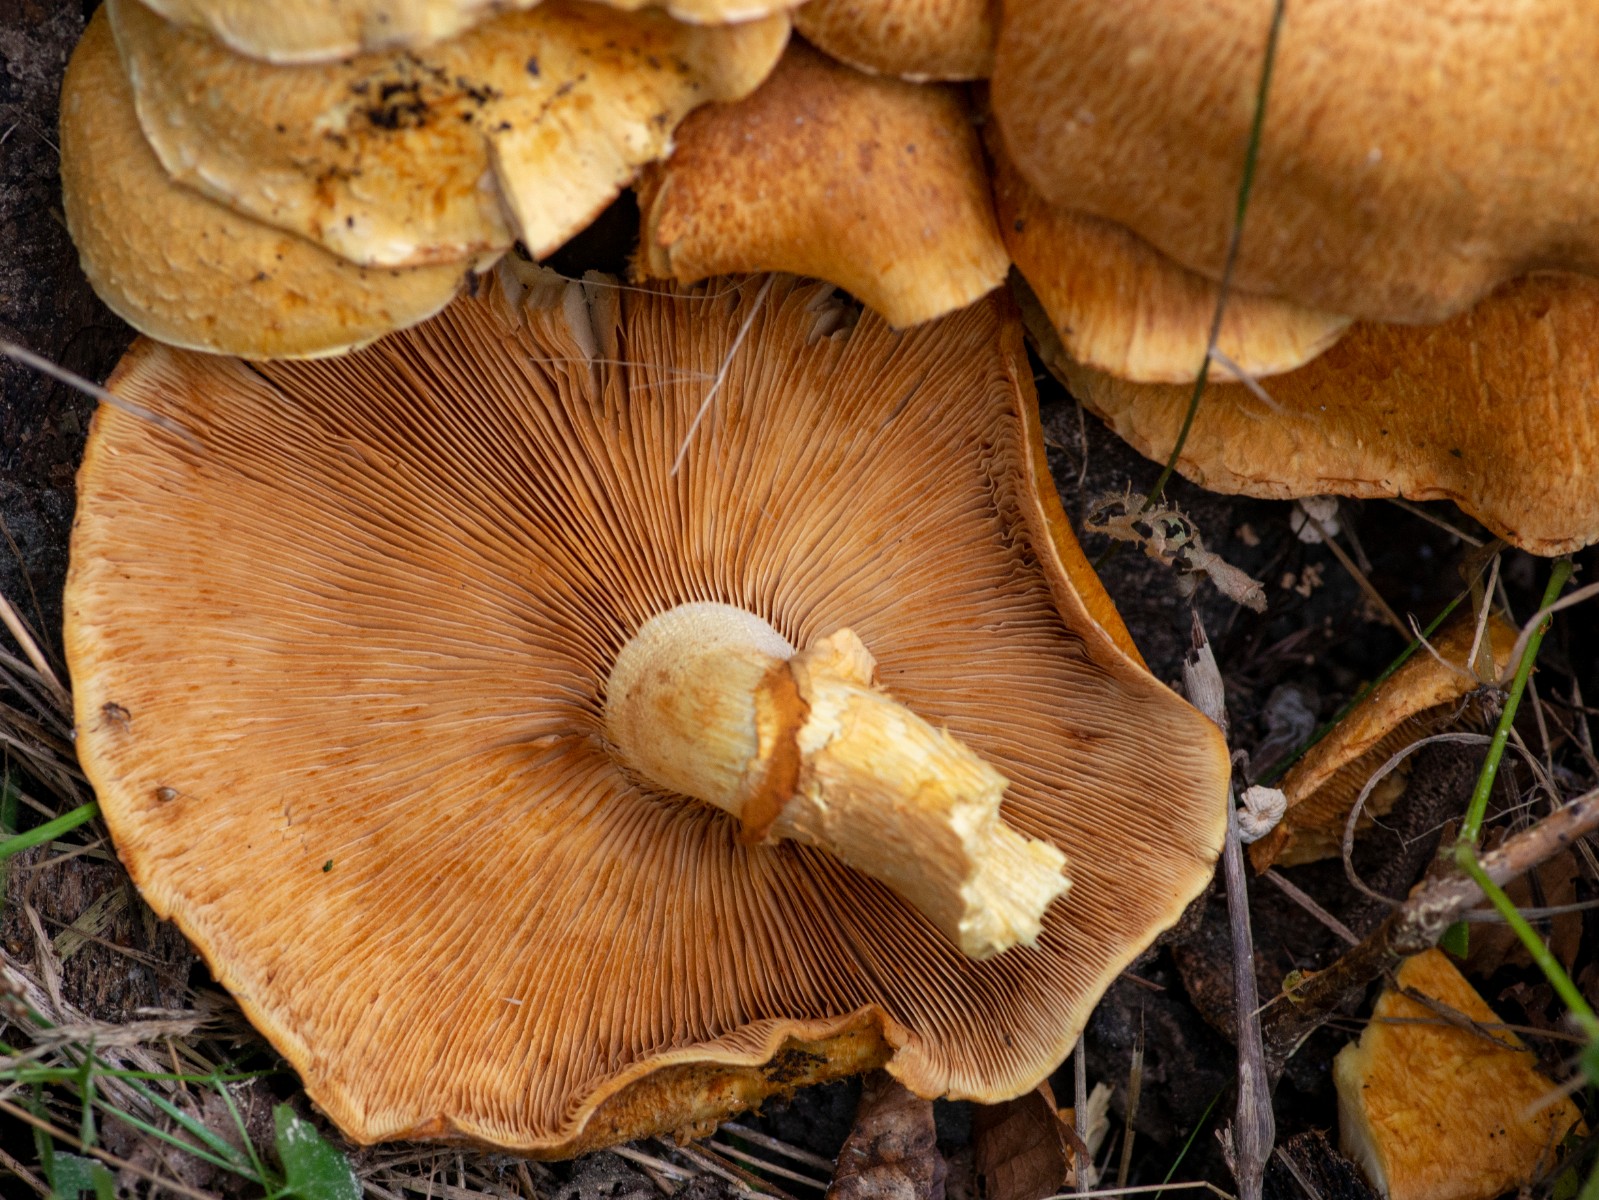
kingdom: Fungi
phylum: Basidiomycota
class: Agaricomycetes
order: Agaricales
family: Hymenogastraceae
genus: Gymnopilus
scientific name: Gymnopilus spectabilis
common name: fibret flammehat
